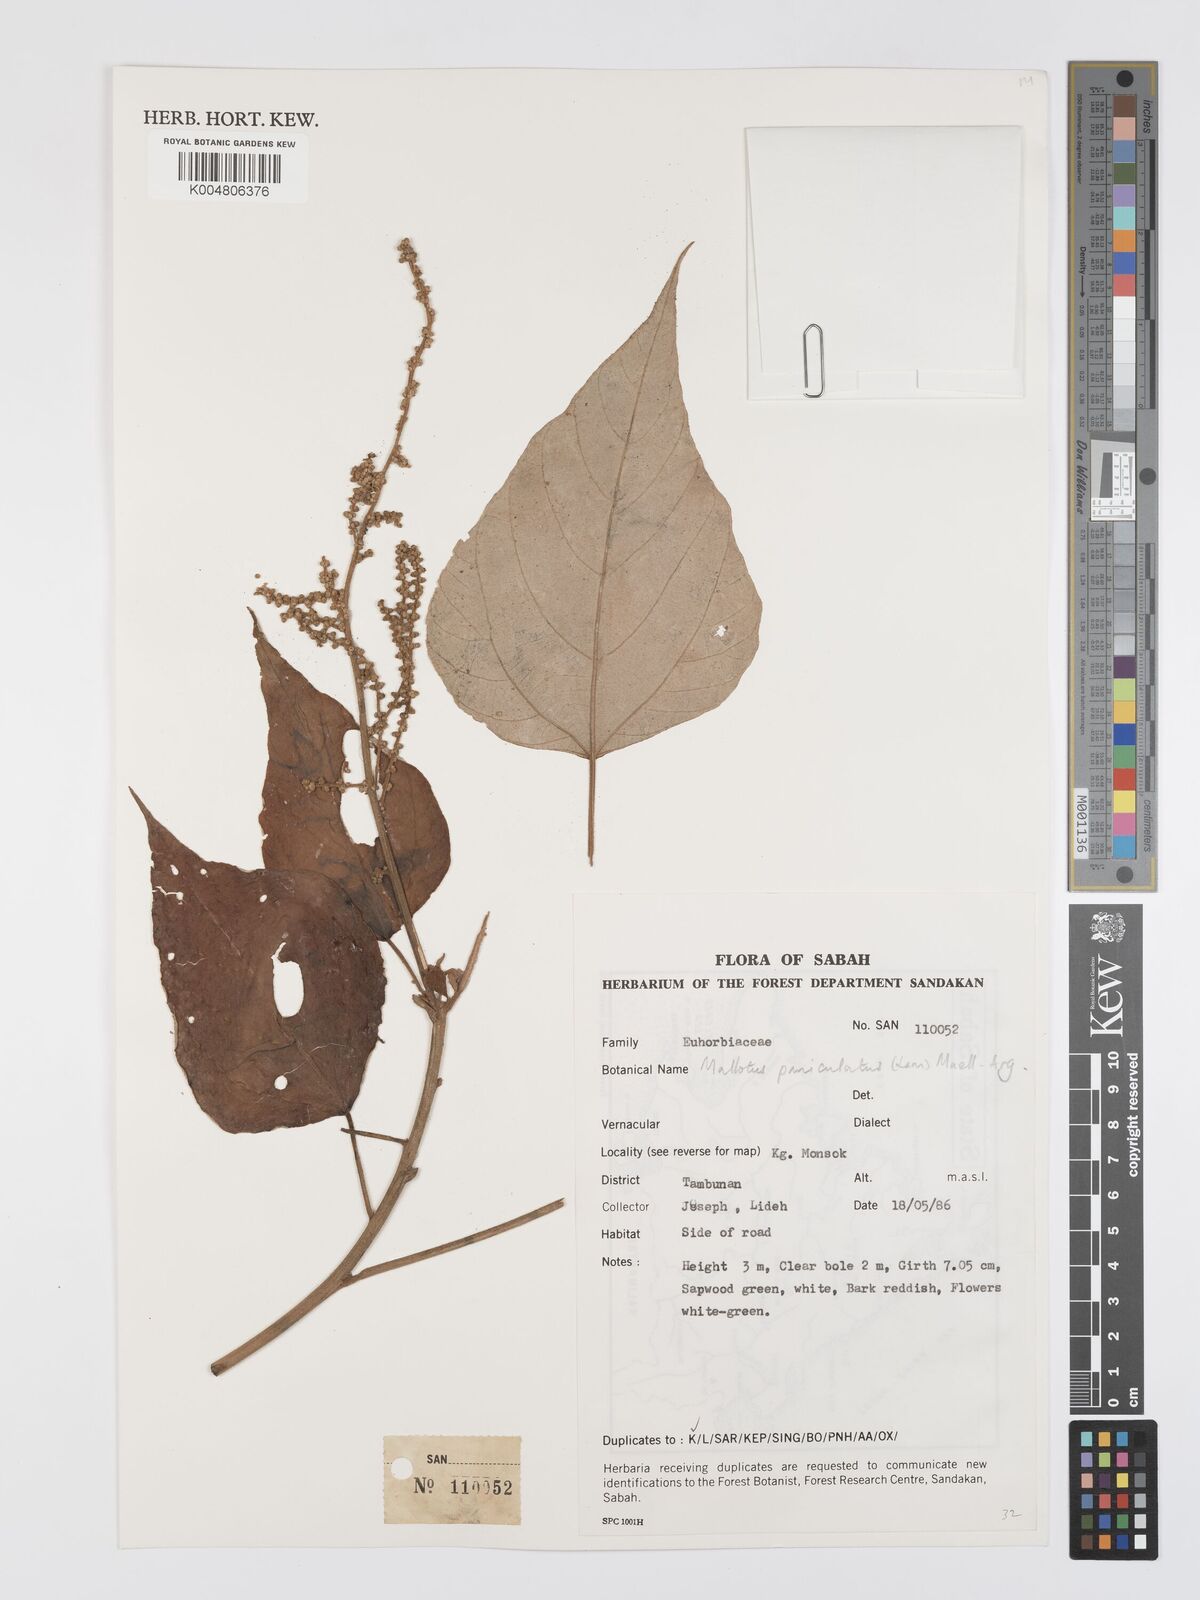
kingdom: Plantae
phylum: Tracheophyta
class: Magnoliopsida
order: Malpighiales
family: Euphorbiaceae
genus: Mallotus
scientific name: Mallotus paniculatus
